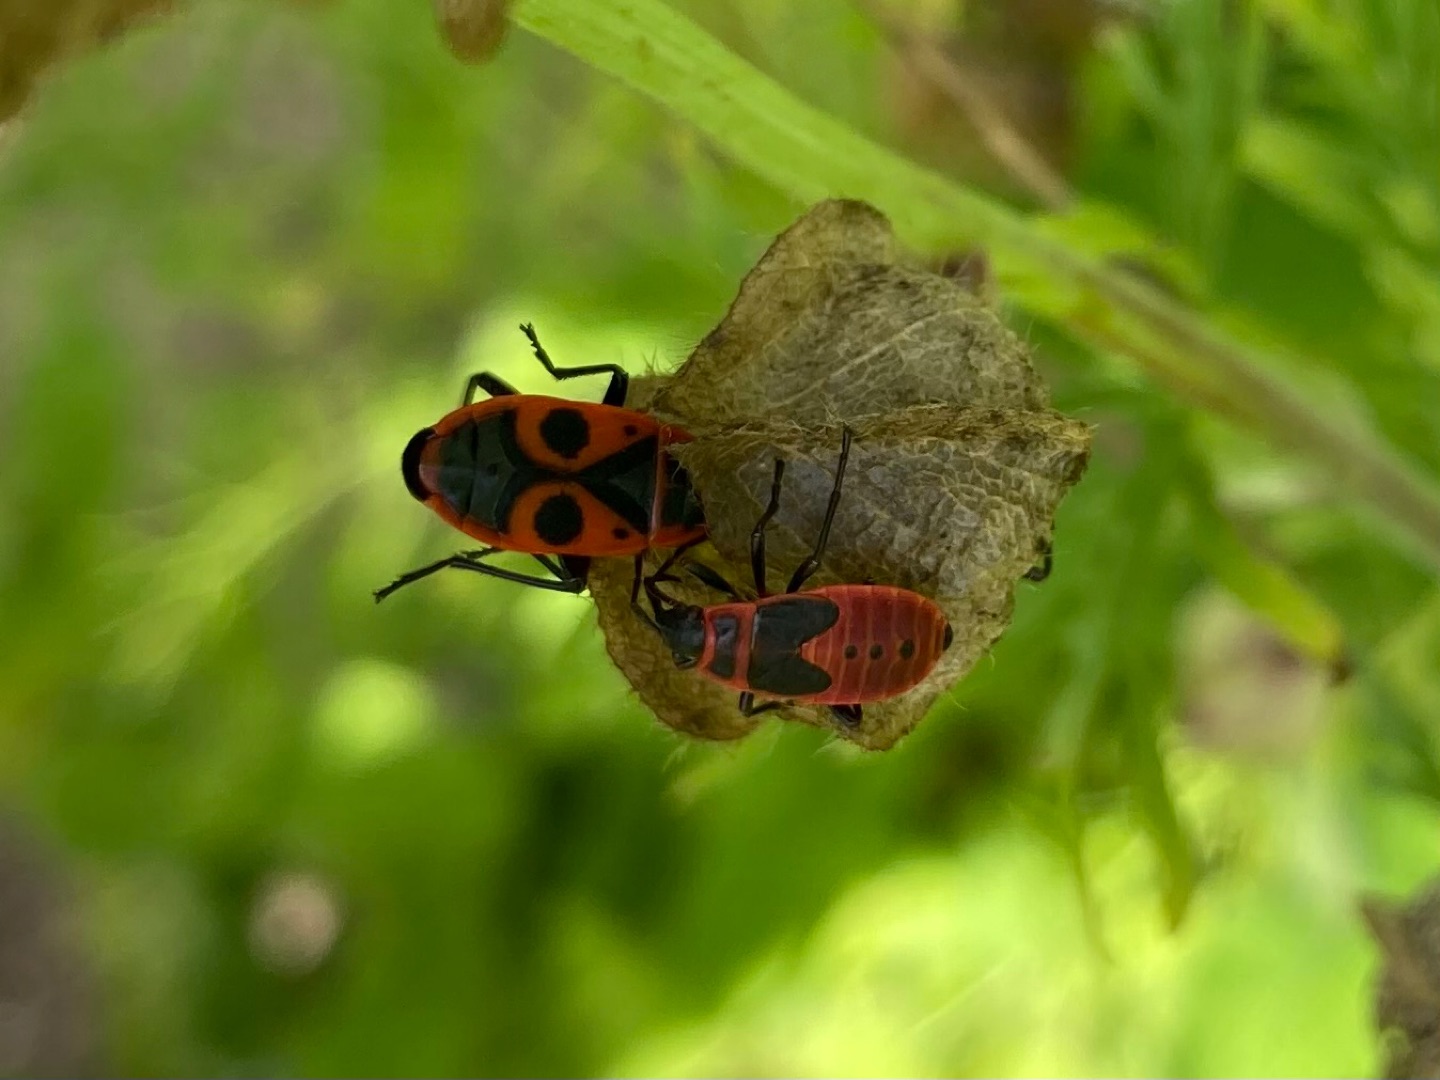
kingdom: Animalia
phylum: Arthropoda
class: Insecta
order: Hemiptera
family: Pyrrhocoridae
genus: Pyrrhocoris
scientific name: Pyrrhocoris apterus
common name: Ildtæge
